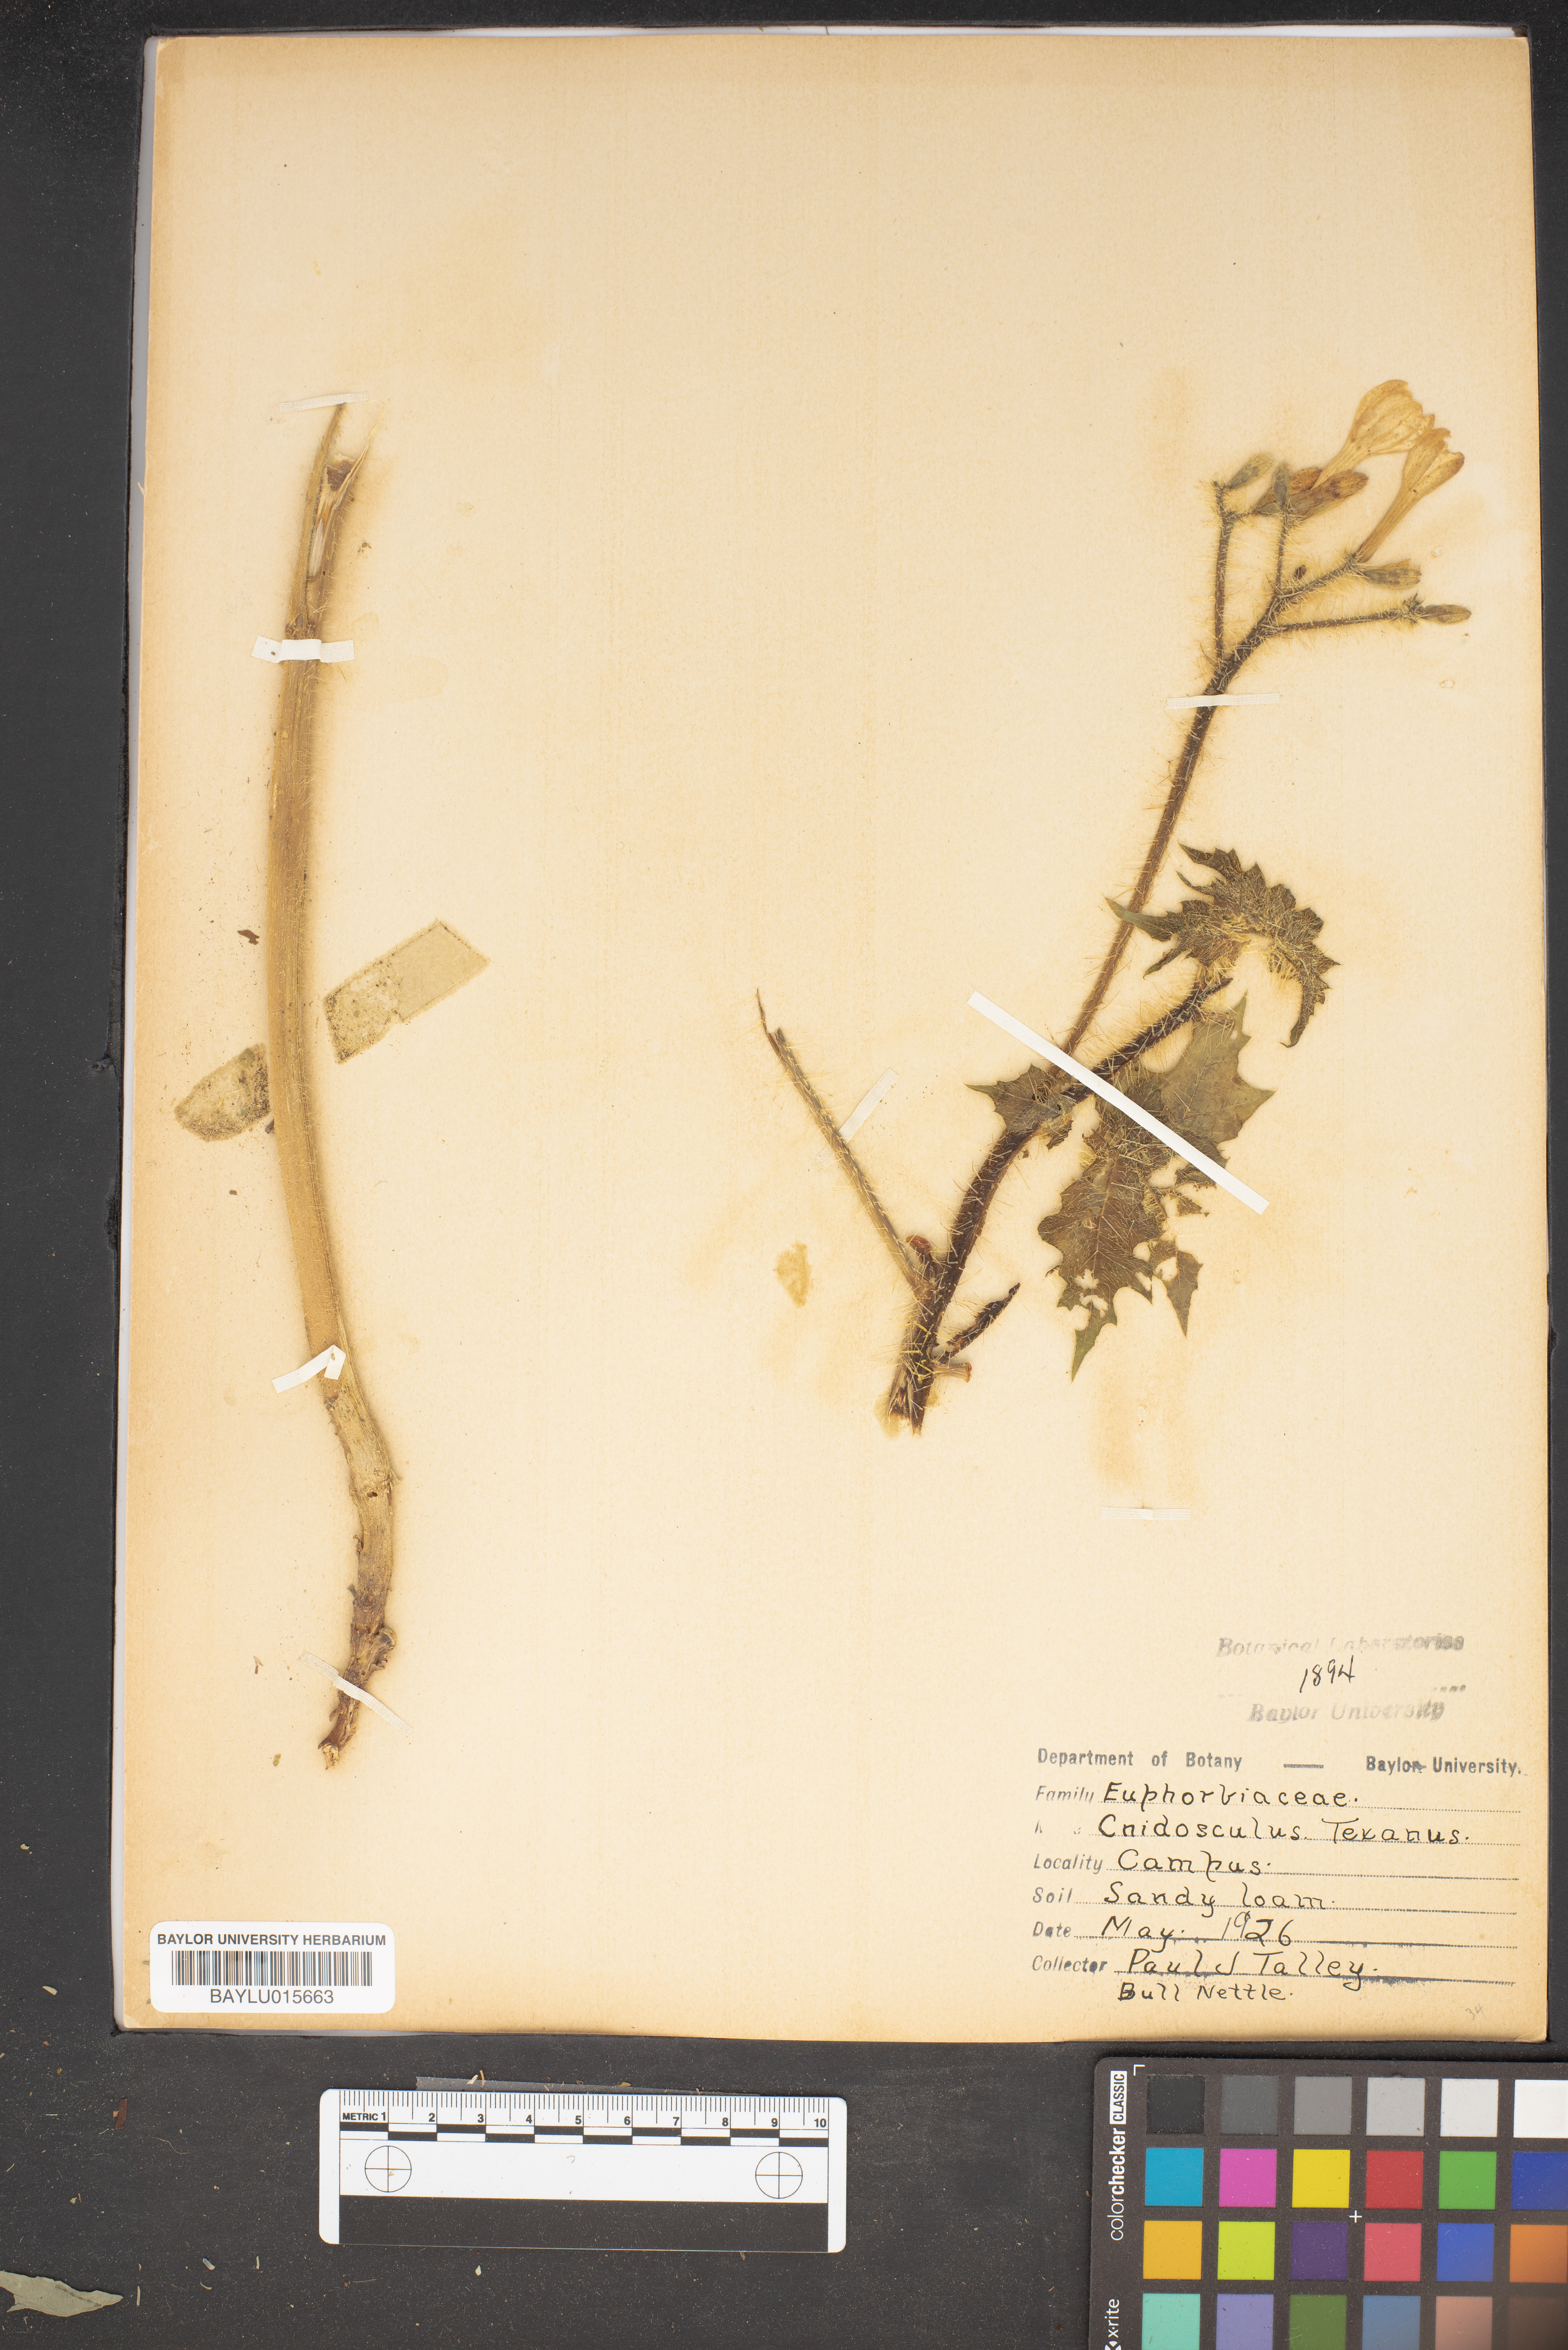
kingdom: Plantae
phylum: Tracheophyta
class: Magnoliopsida
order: Malpighiales
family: Euphorbiaceae
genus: Cnidoscolus
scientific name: Cnidoscolus texanus
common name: Texas bull-nettle
